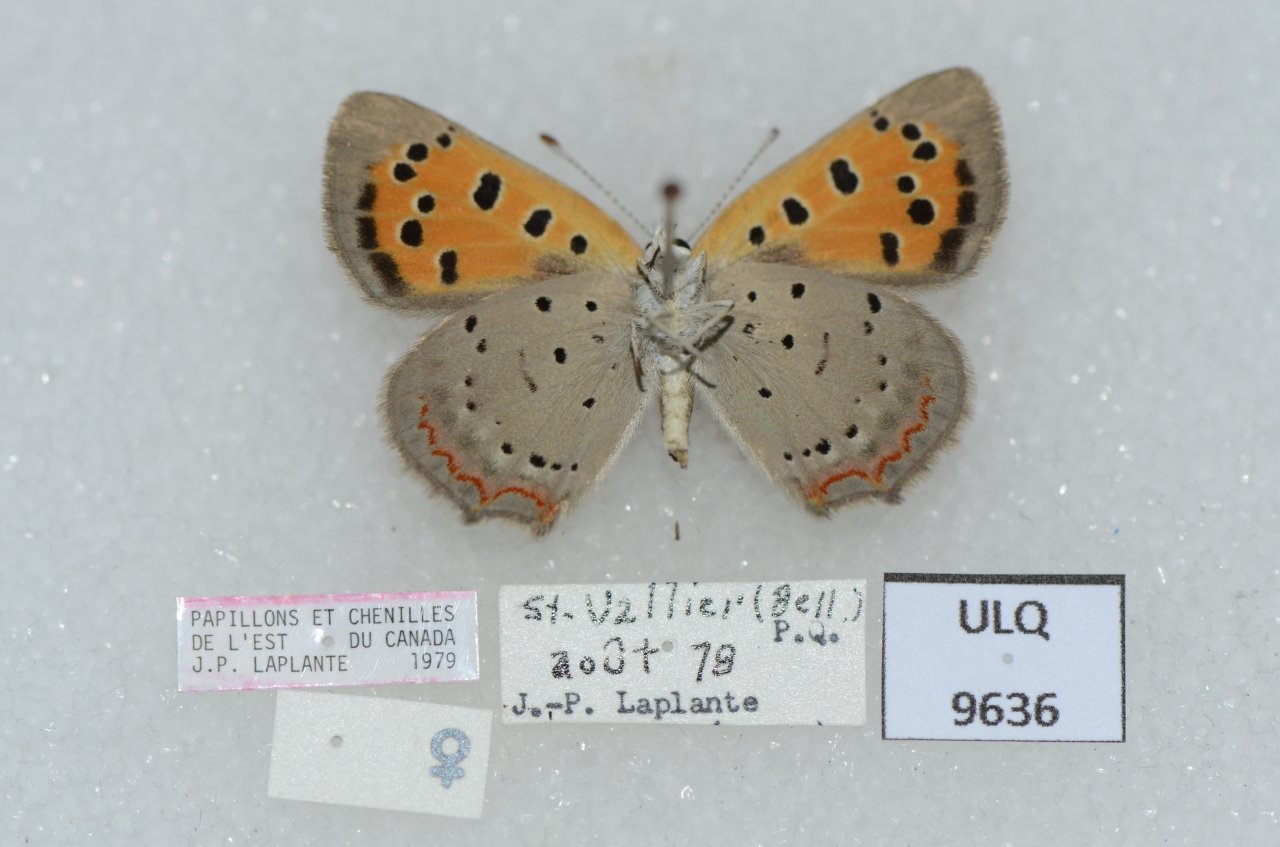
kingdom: Animalia
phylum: Arthropoda
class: Insecta
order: Lepidoptera
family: Lycaenidae
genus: Lycaena
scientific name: Lycaena phlaeas
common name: American Copper
